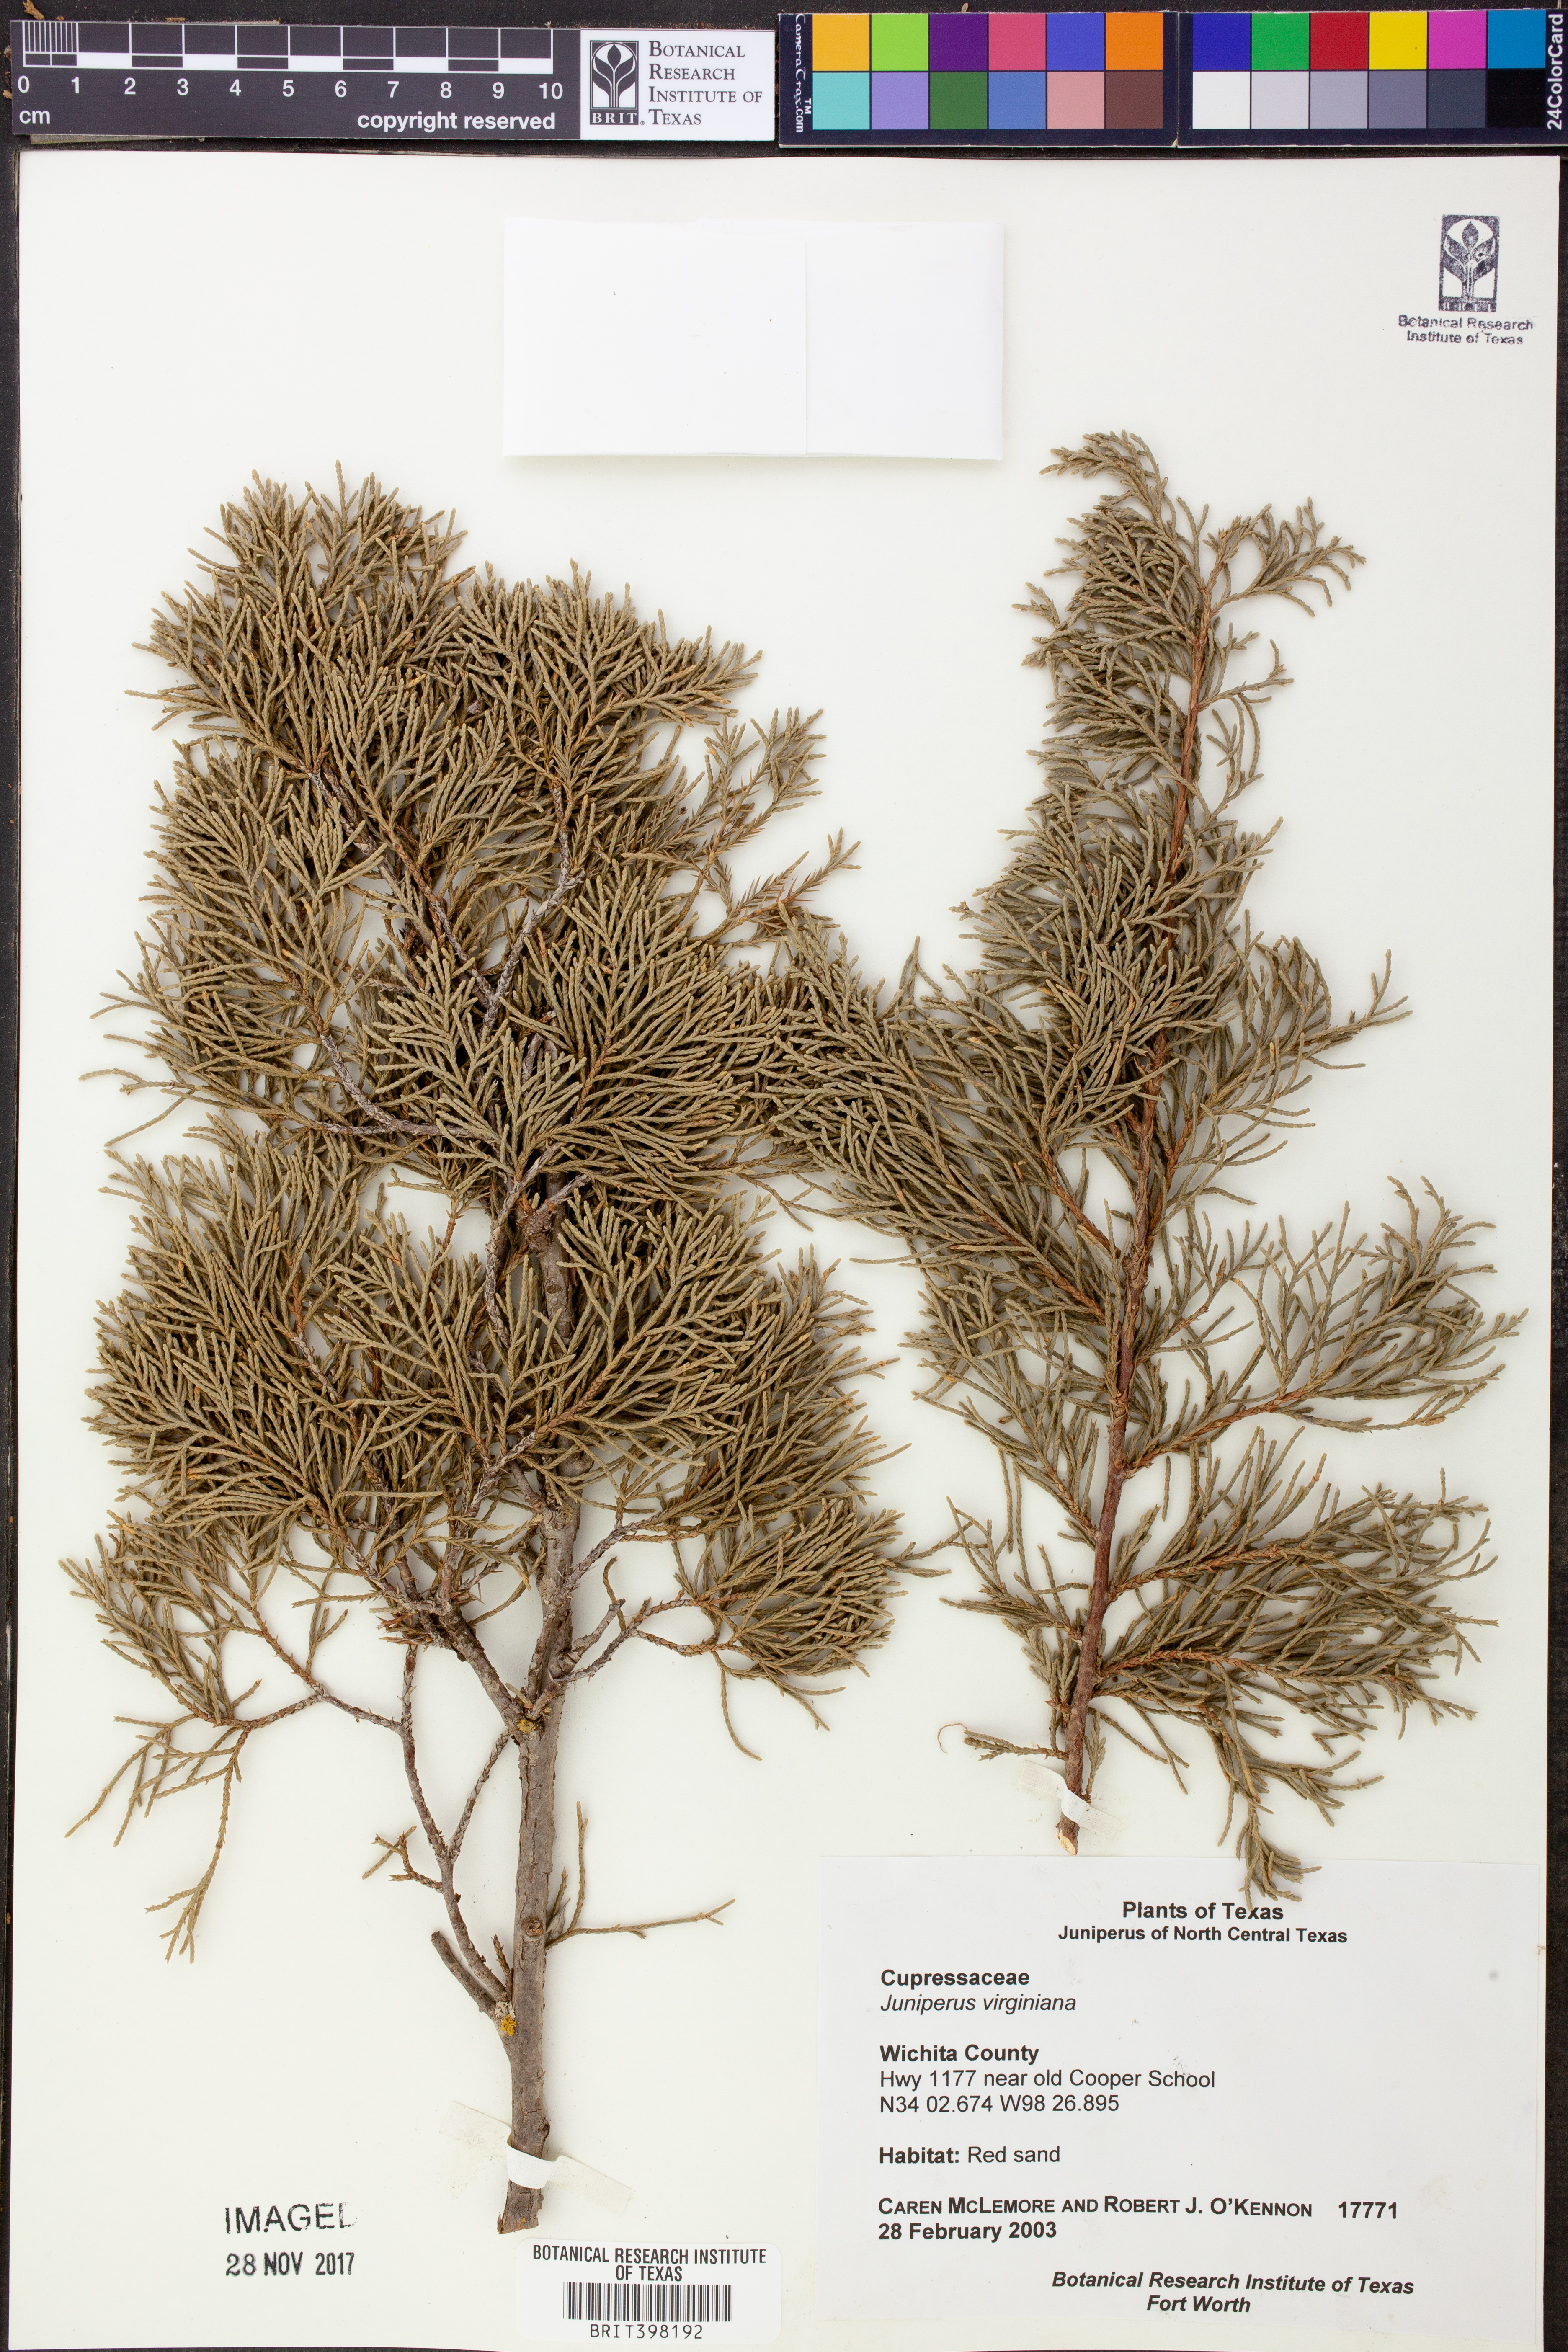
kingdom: Plantae
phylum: Tracheophyta
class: Pinopsida
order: Pinales
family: Cupressaceae
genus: Juniperus
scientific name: Juniperus virginiana
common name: Red juniper
